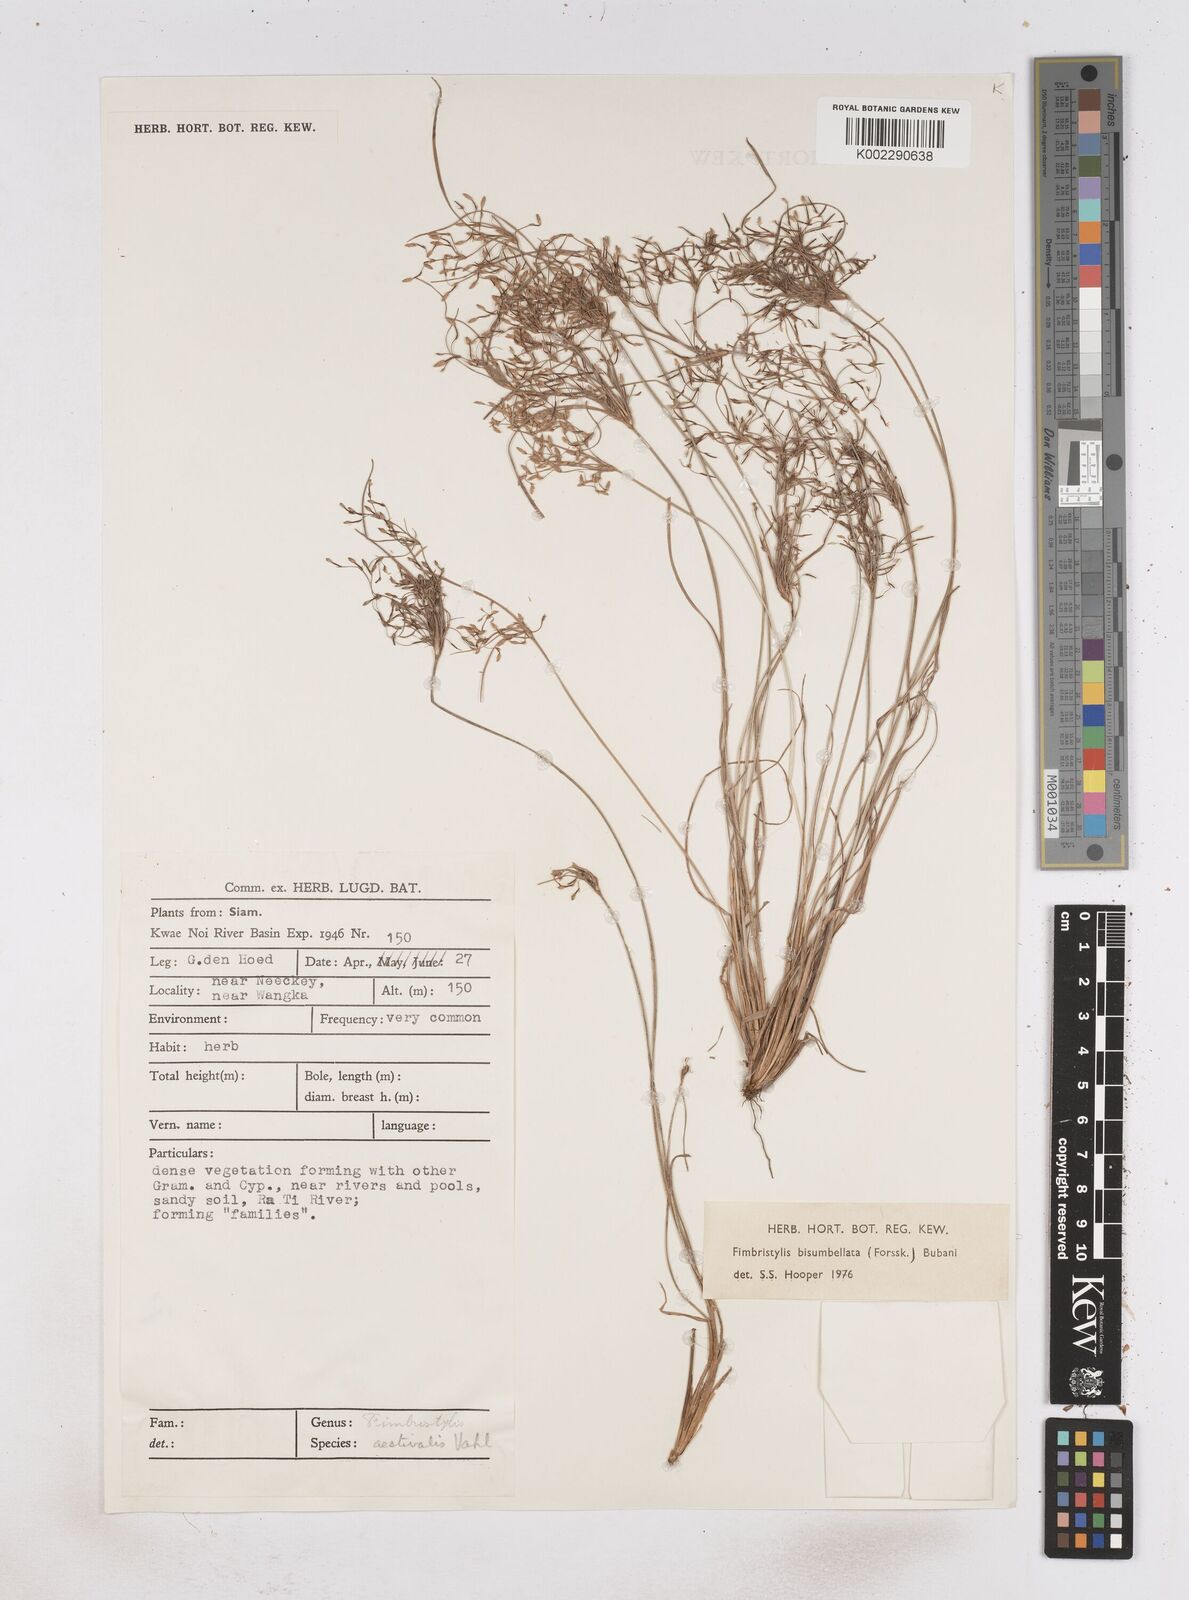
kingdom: Plantae
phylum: Tracheophyta
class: Liliopsida
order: Poales
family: Cyperaceae
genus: Fimbristylis
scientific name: Fimbristylis bisumbellata
